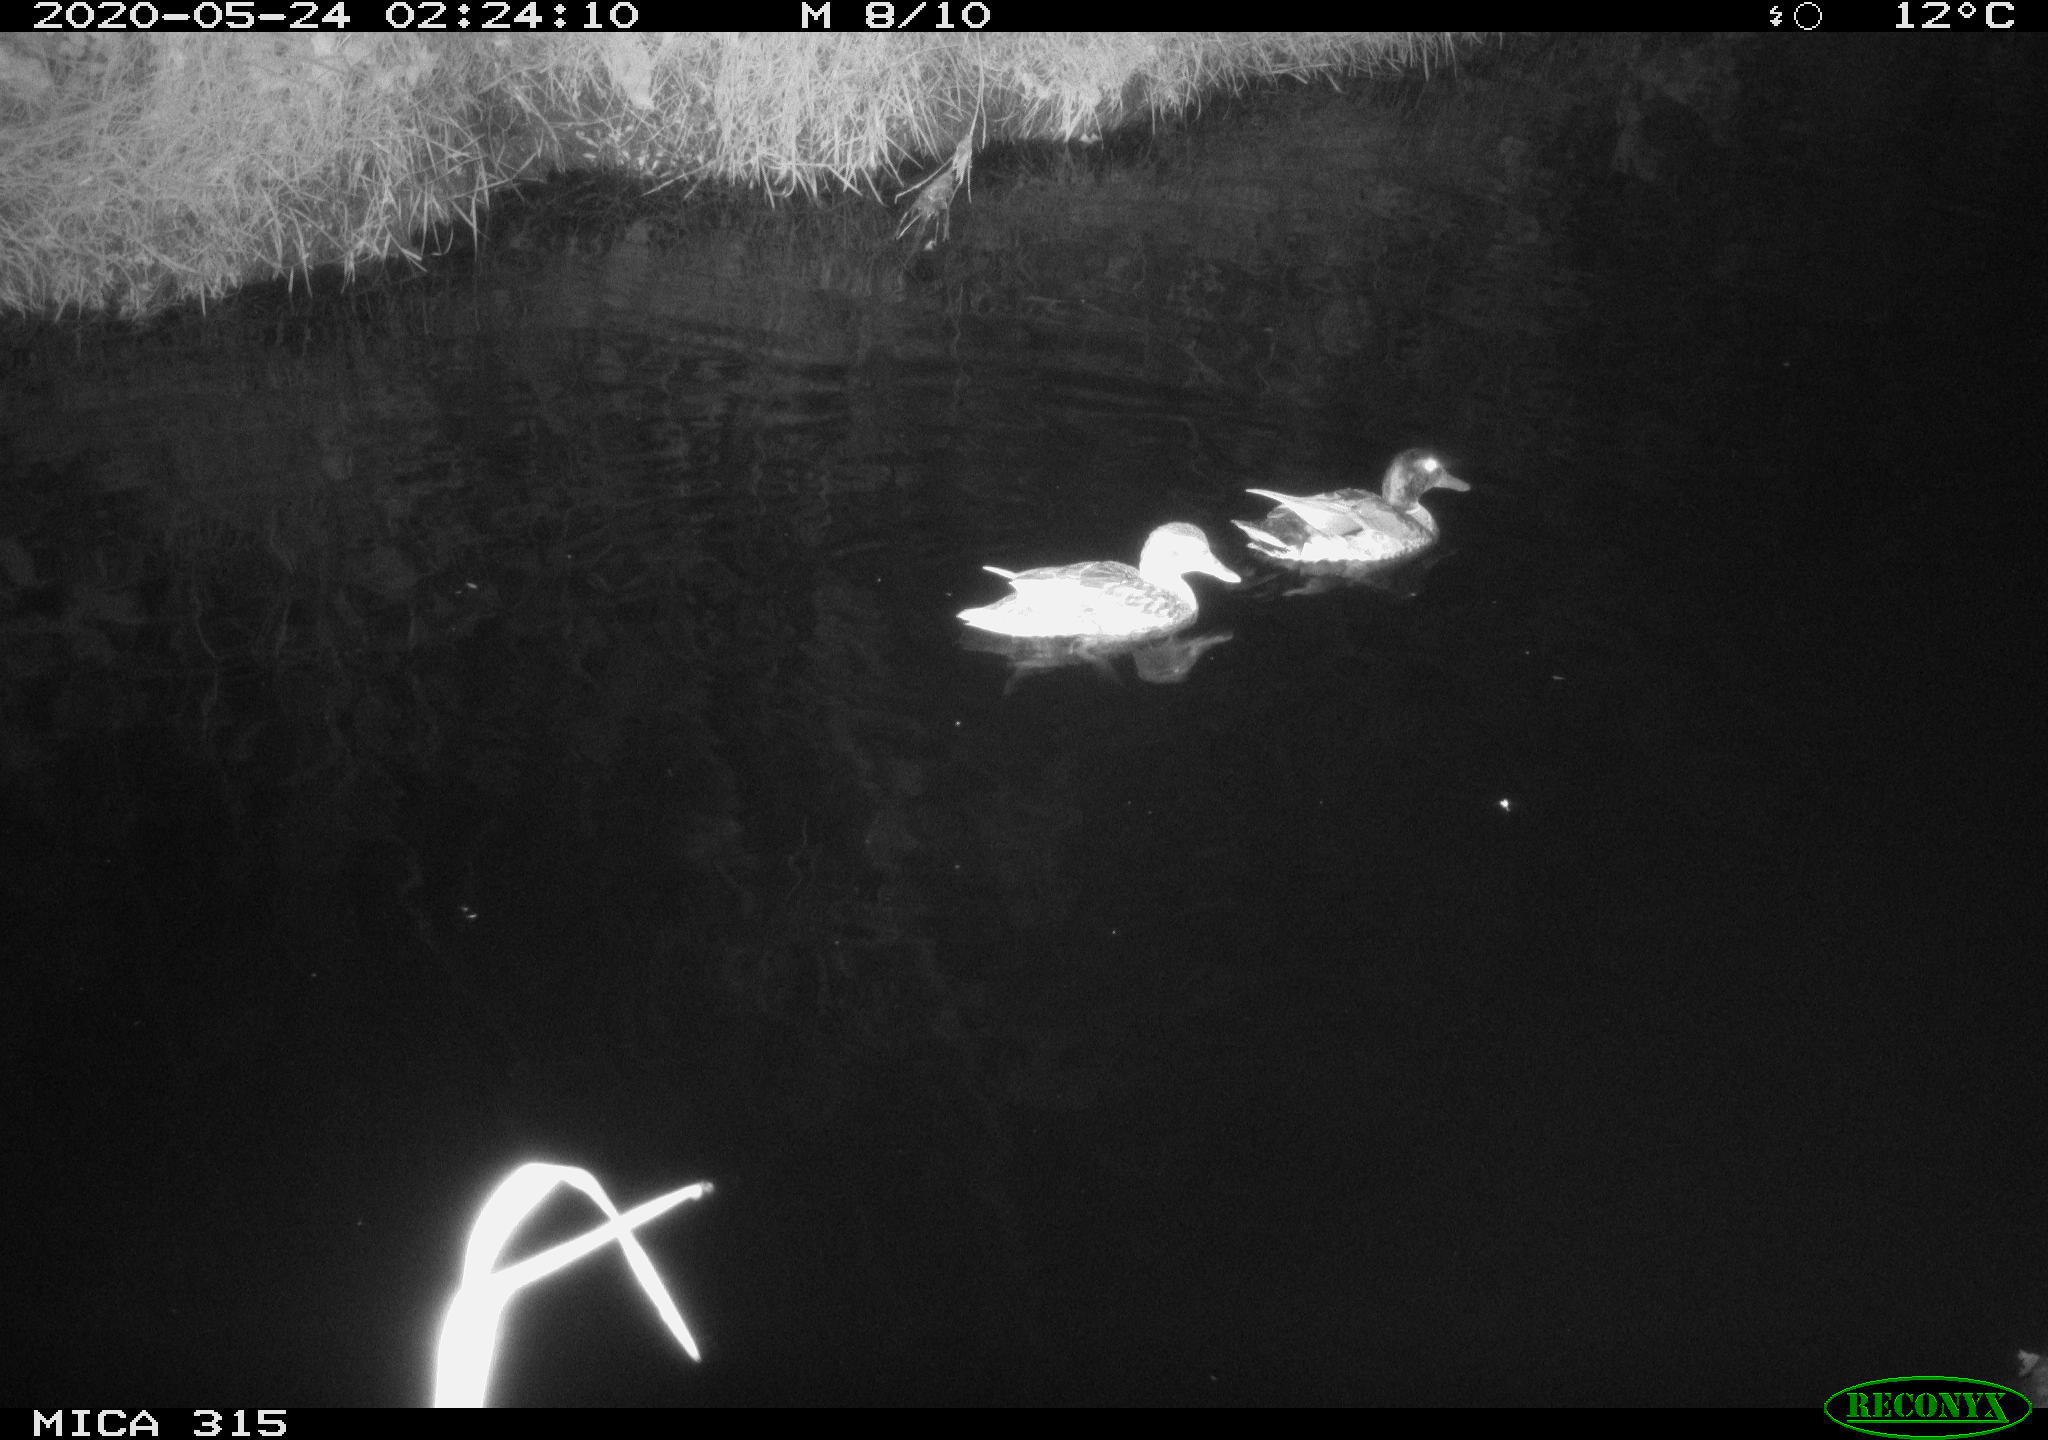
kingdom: Animalia
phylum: Chordata
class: Aves
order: Anseriformes
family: Anatidae
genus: Anas
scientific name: Anas platyrhynchos
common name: Mallard
